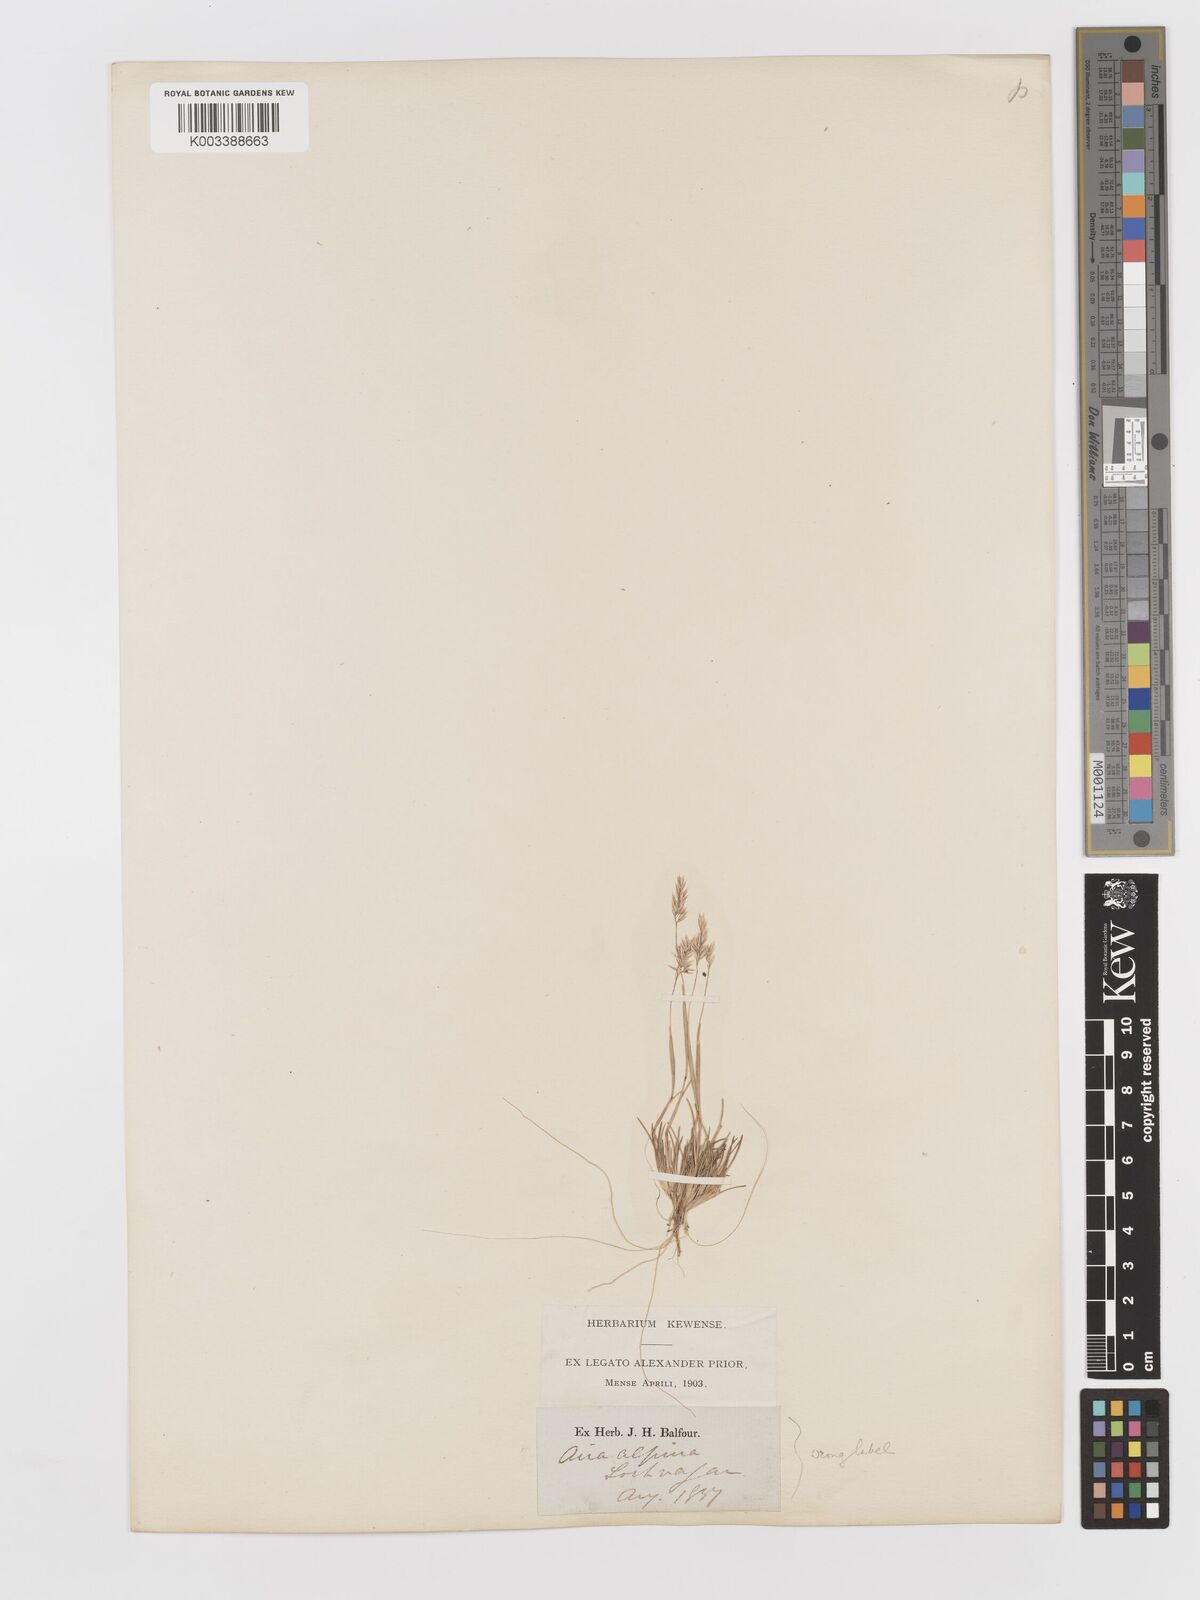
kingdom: Plantae
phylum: Tracheophyta
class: Liliopsida
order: Poales
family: Poaceae
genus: Corynephorus
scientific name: Corynephorus canescens
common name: Grey hair-grass
